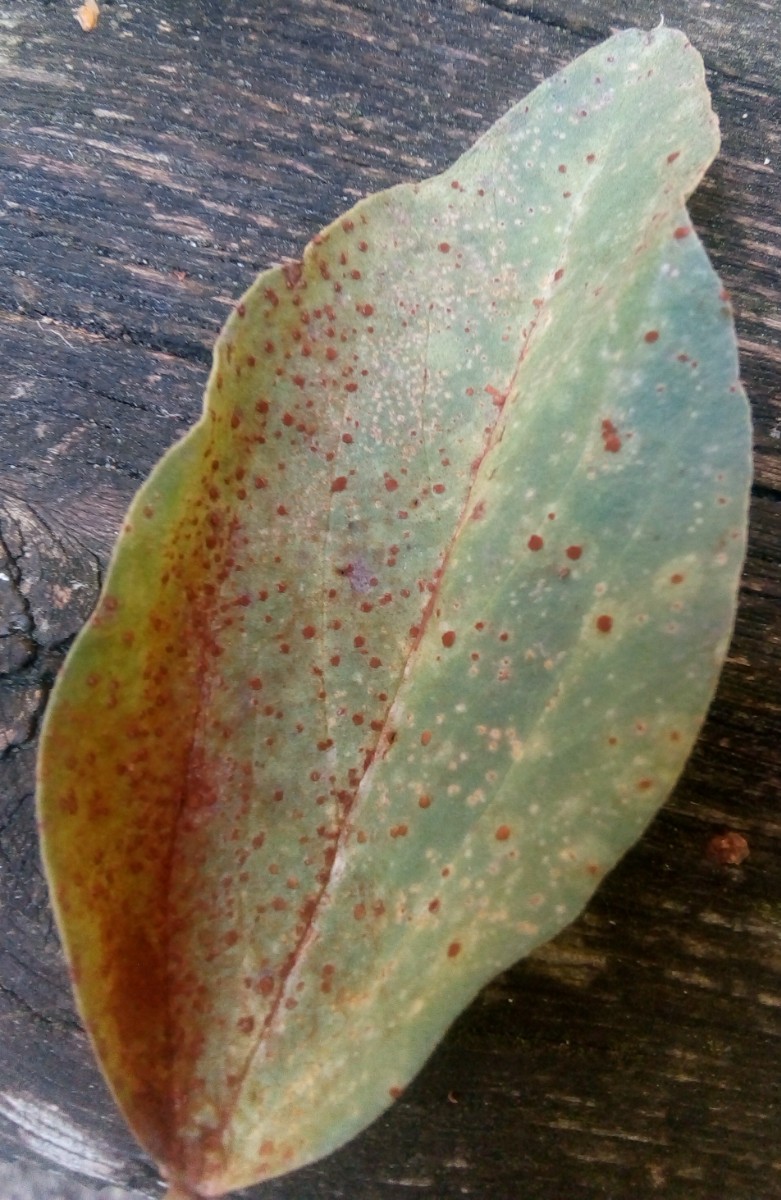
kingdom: Fungi
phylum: Basidiomycota
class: Pucciniomycetes
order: Pucciniales
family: Pucciniaceae
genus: Uromyces
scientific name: Uromyces viciae-fabae
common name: Broad bean rust
